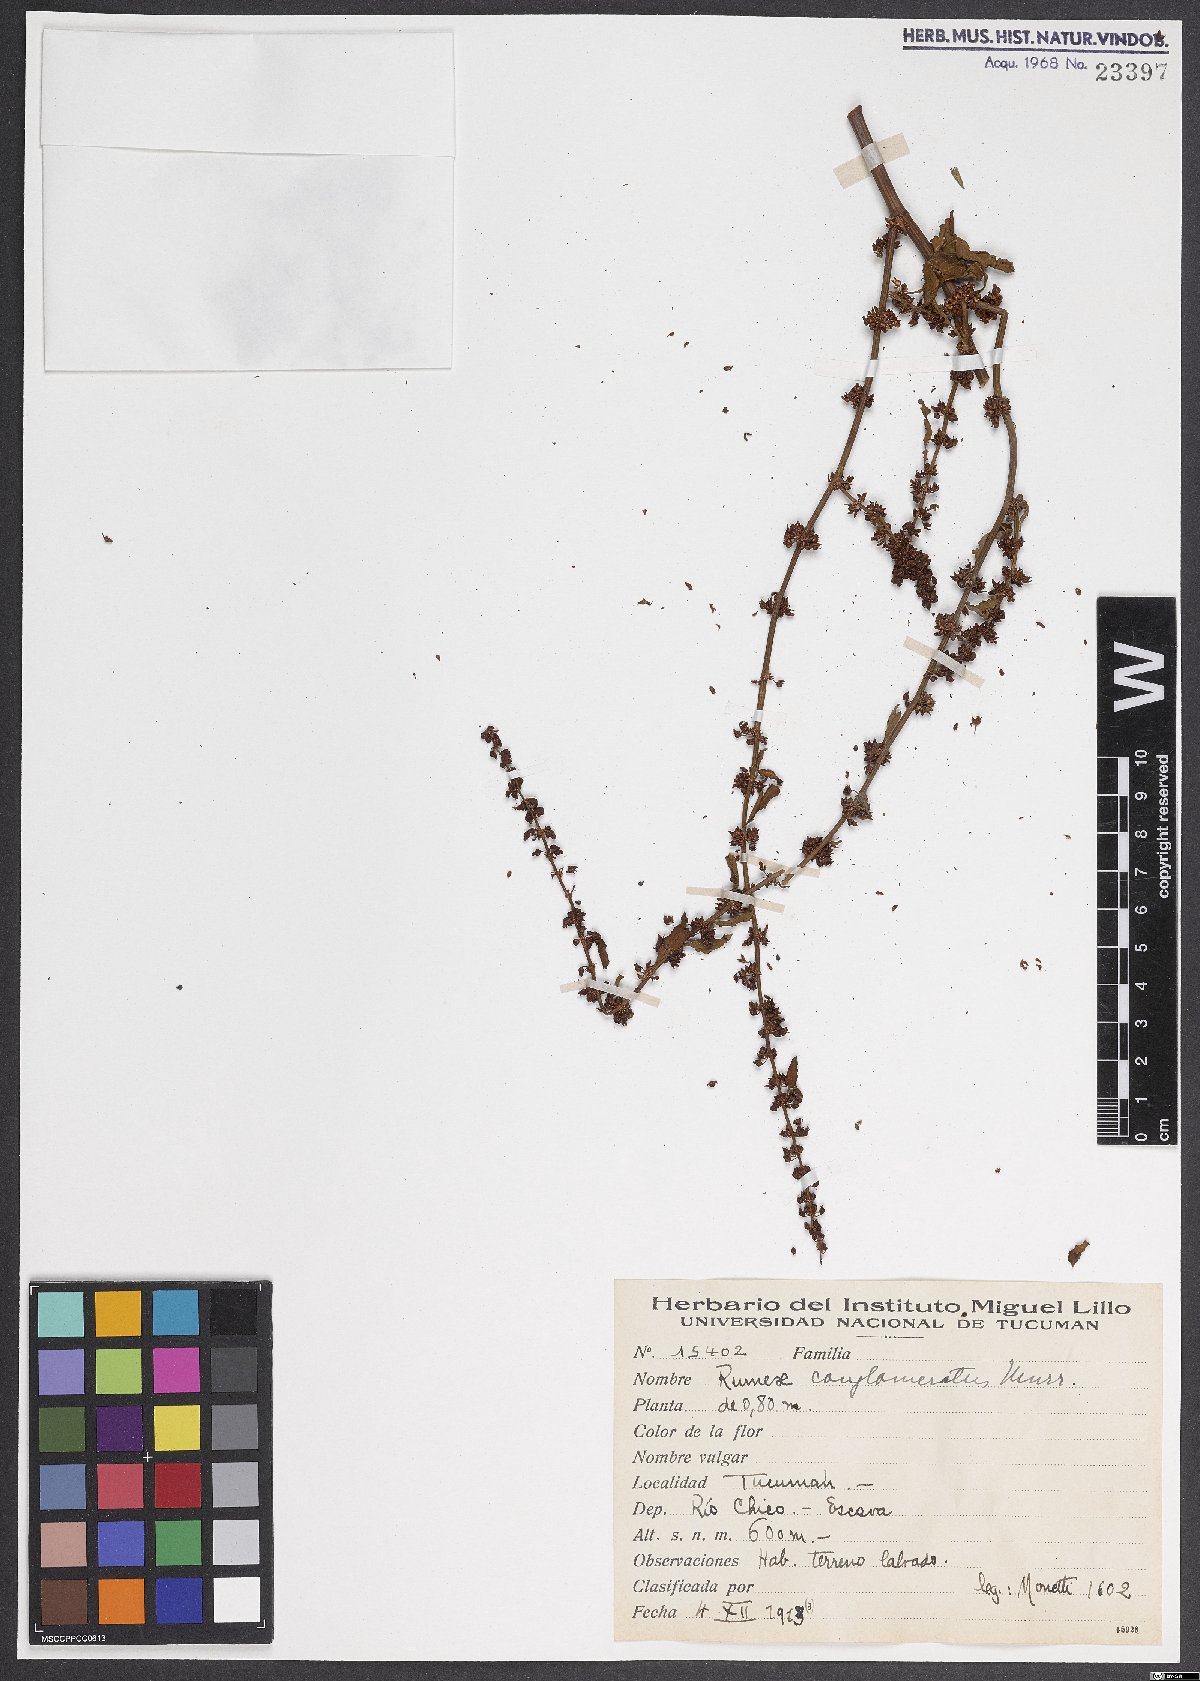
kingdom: Plantae
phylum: Tracheophyta
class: Magnoliopsida
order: Caryophyllales
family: Polygonaceae
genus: Rumex
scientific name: Rumex conglomeratus
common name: Clustered dock
